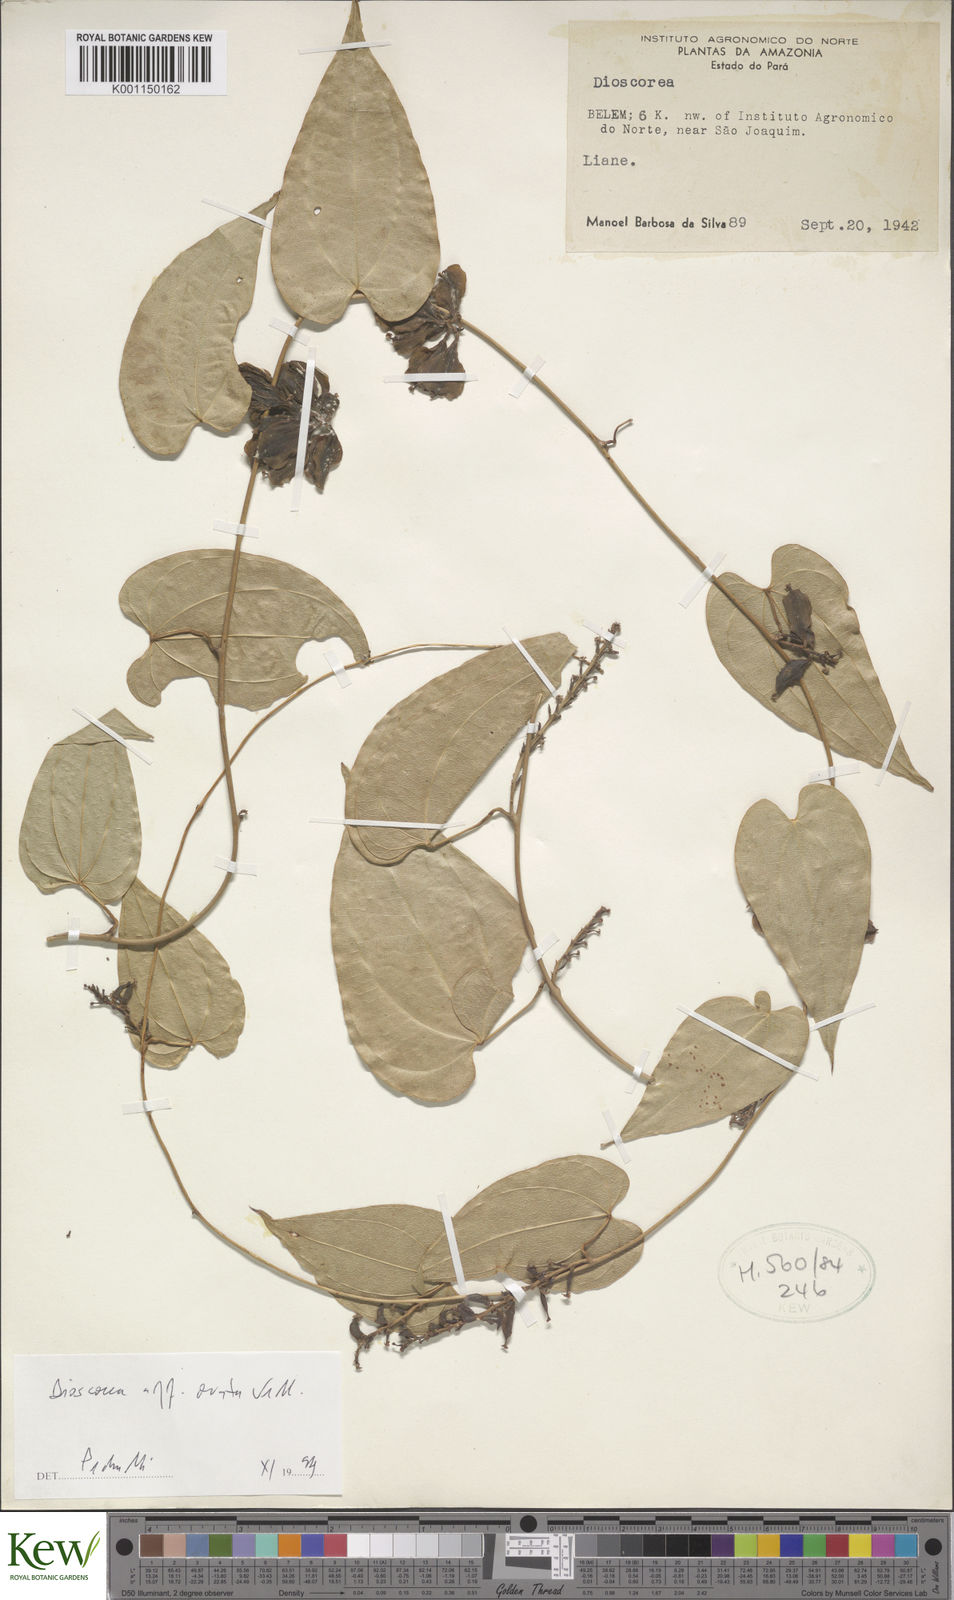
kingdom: Plantae
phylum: Tracheophyta
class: Liliopsida
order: Dioscoreales
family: Dioscoreaceae
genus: Dioscorea
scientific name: Dioscorea amazonum
